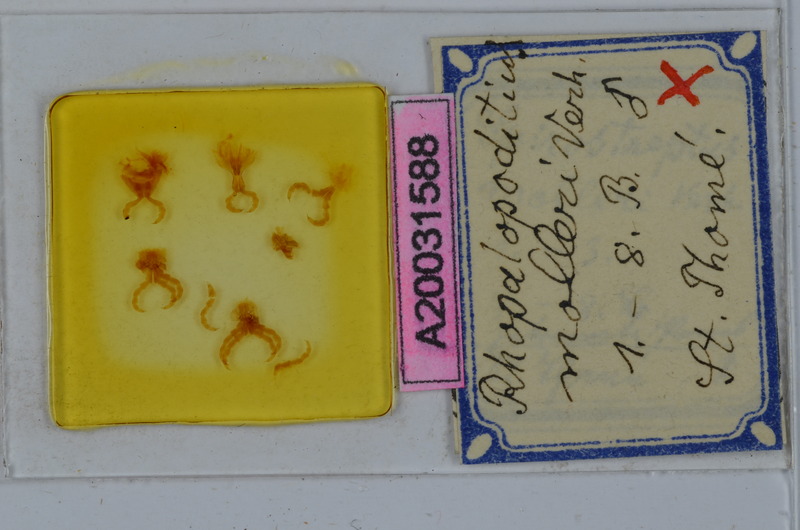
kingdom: Animalia
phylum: Arthropoda
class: Diplopoda
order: Spirostreptida
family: Spirostreptidae
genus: Globanus
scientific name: Globanus integer
